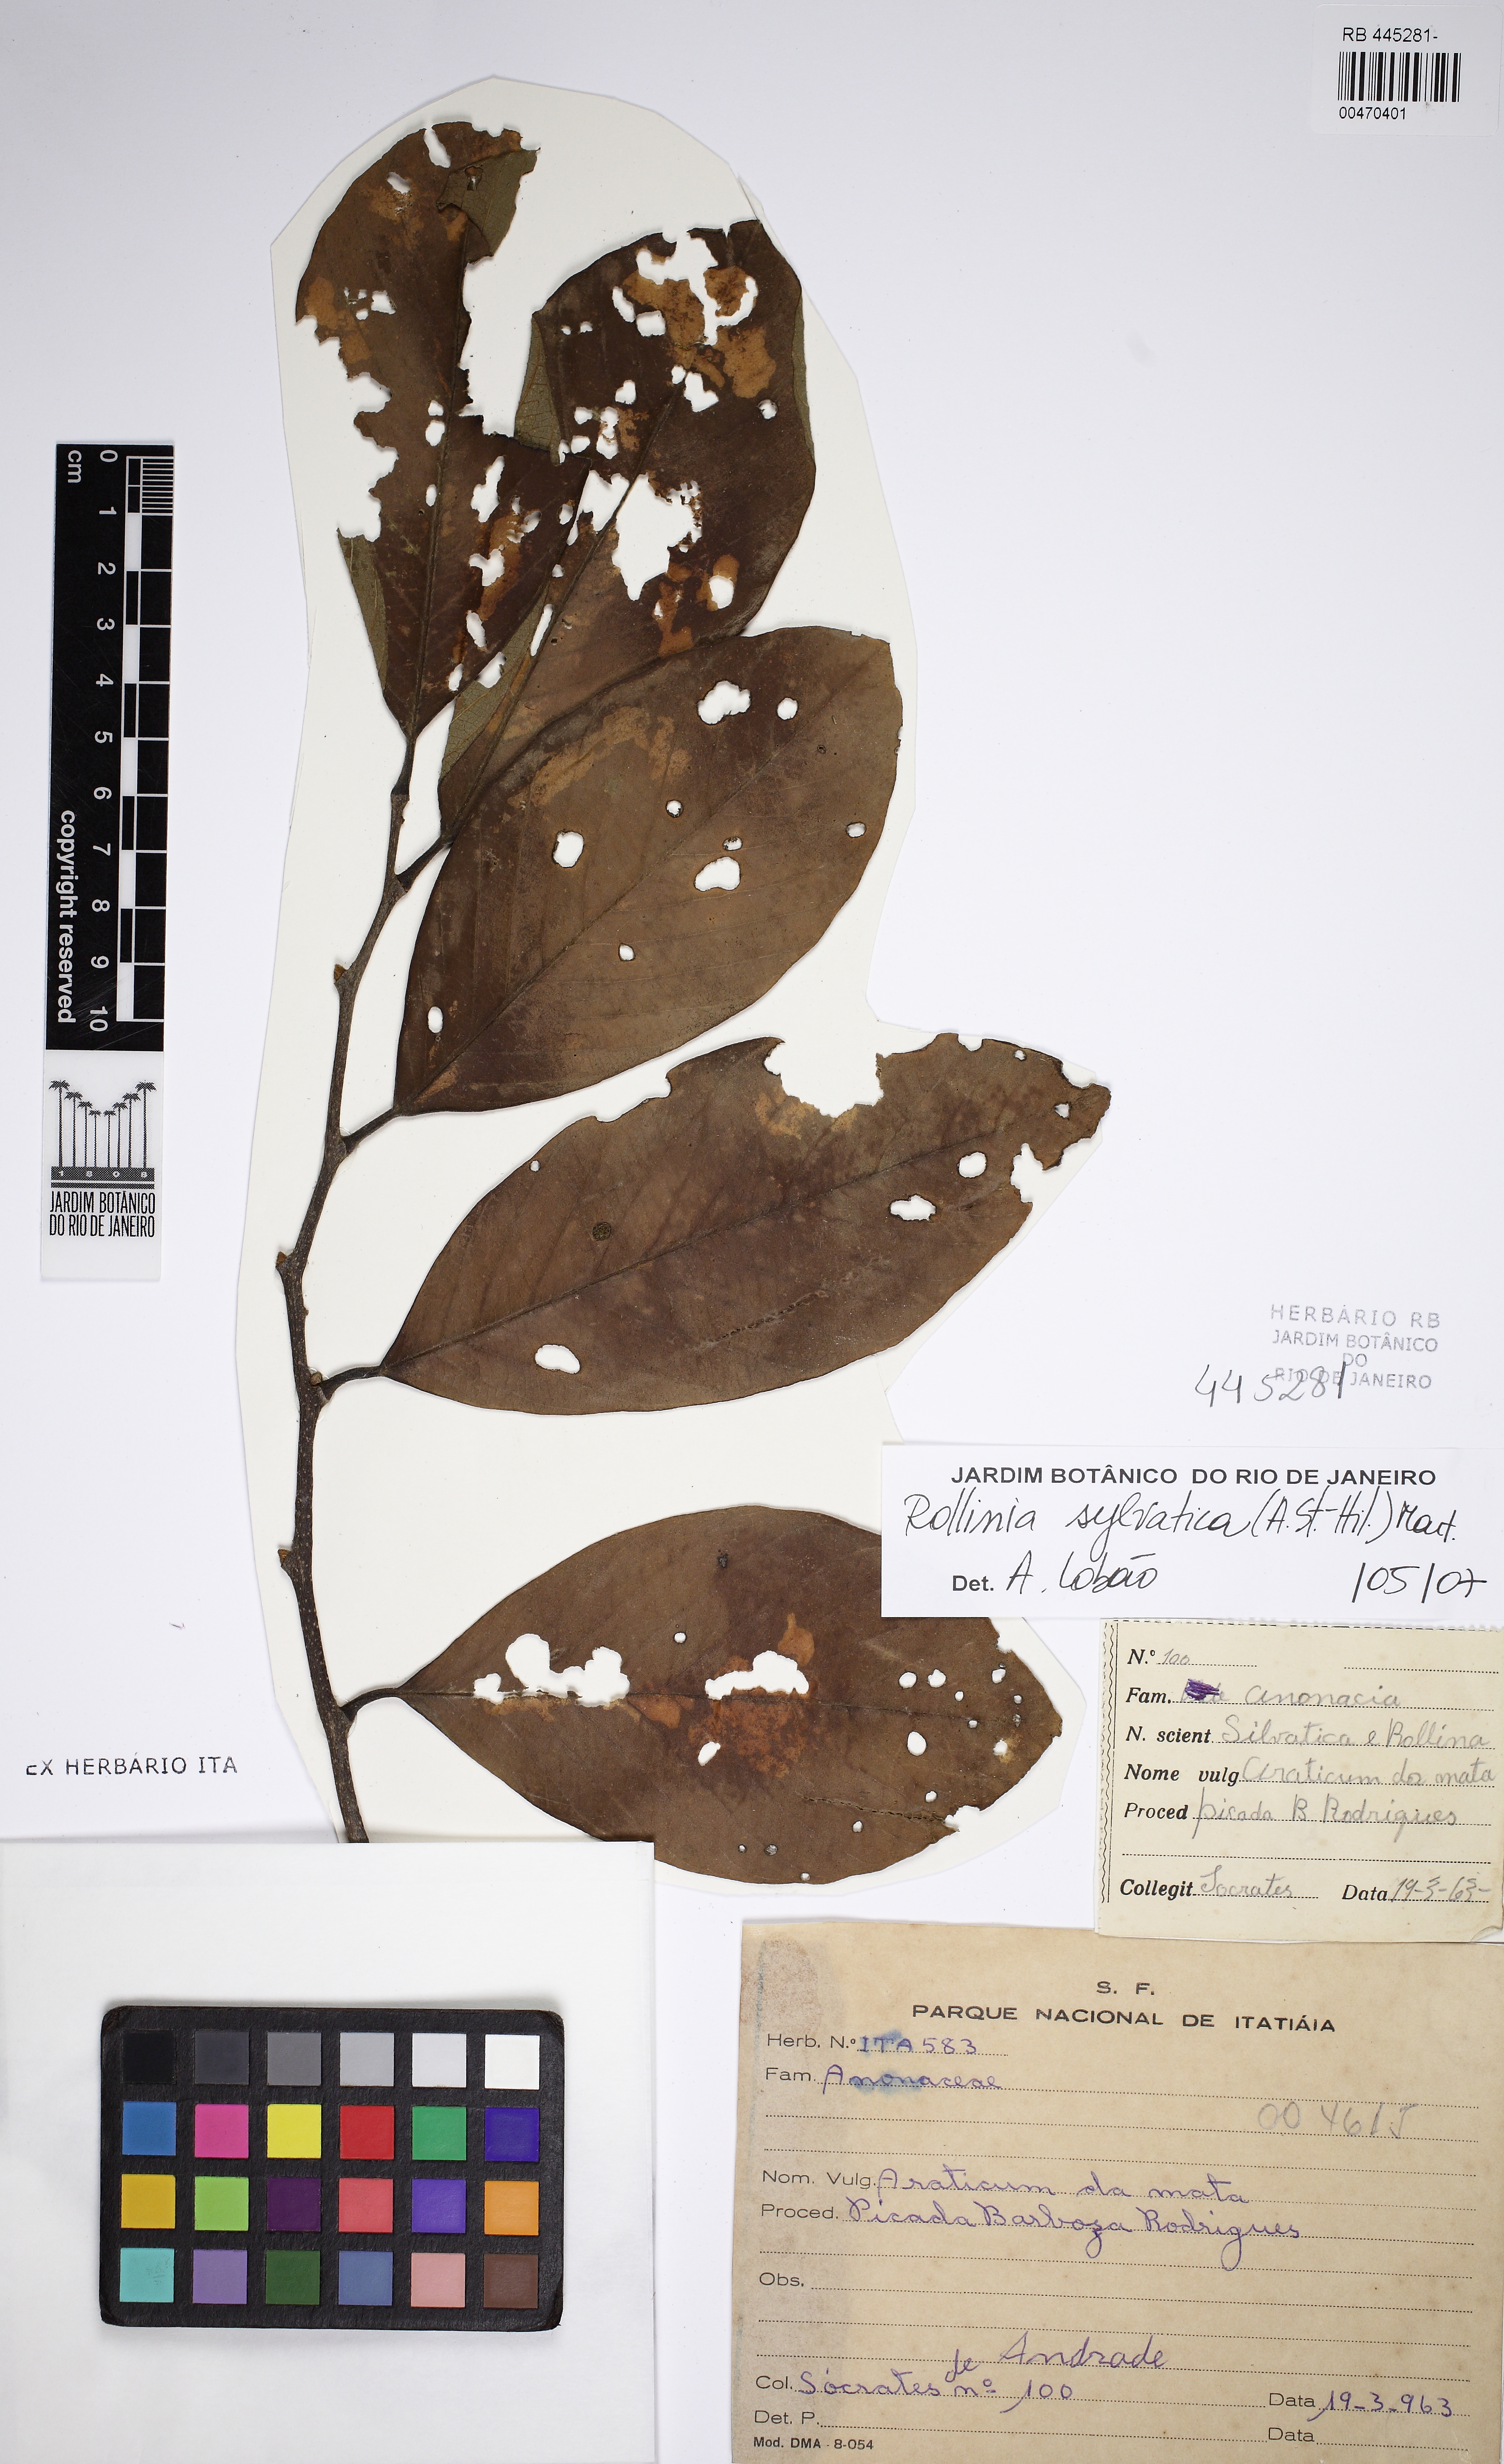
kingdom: Plantae
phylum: Tracheophyta
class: Magnoliopsida
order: Magnoliales
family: Annonaceae
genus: Annona
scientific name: Annona sylvatica
